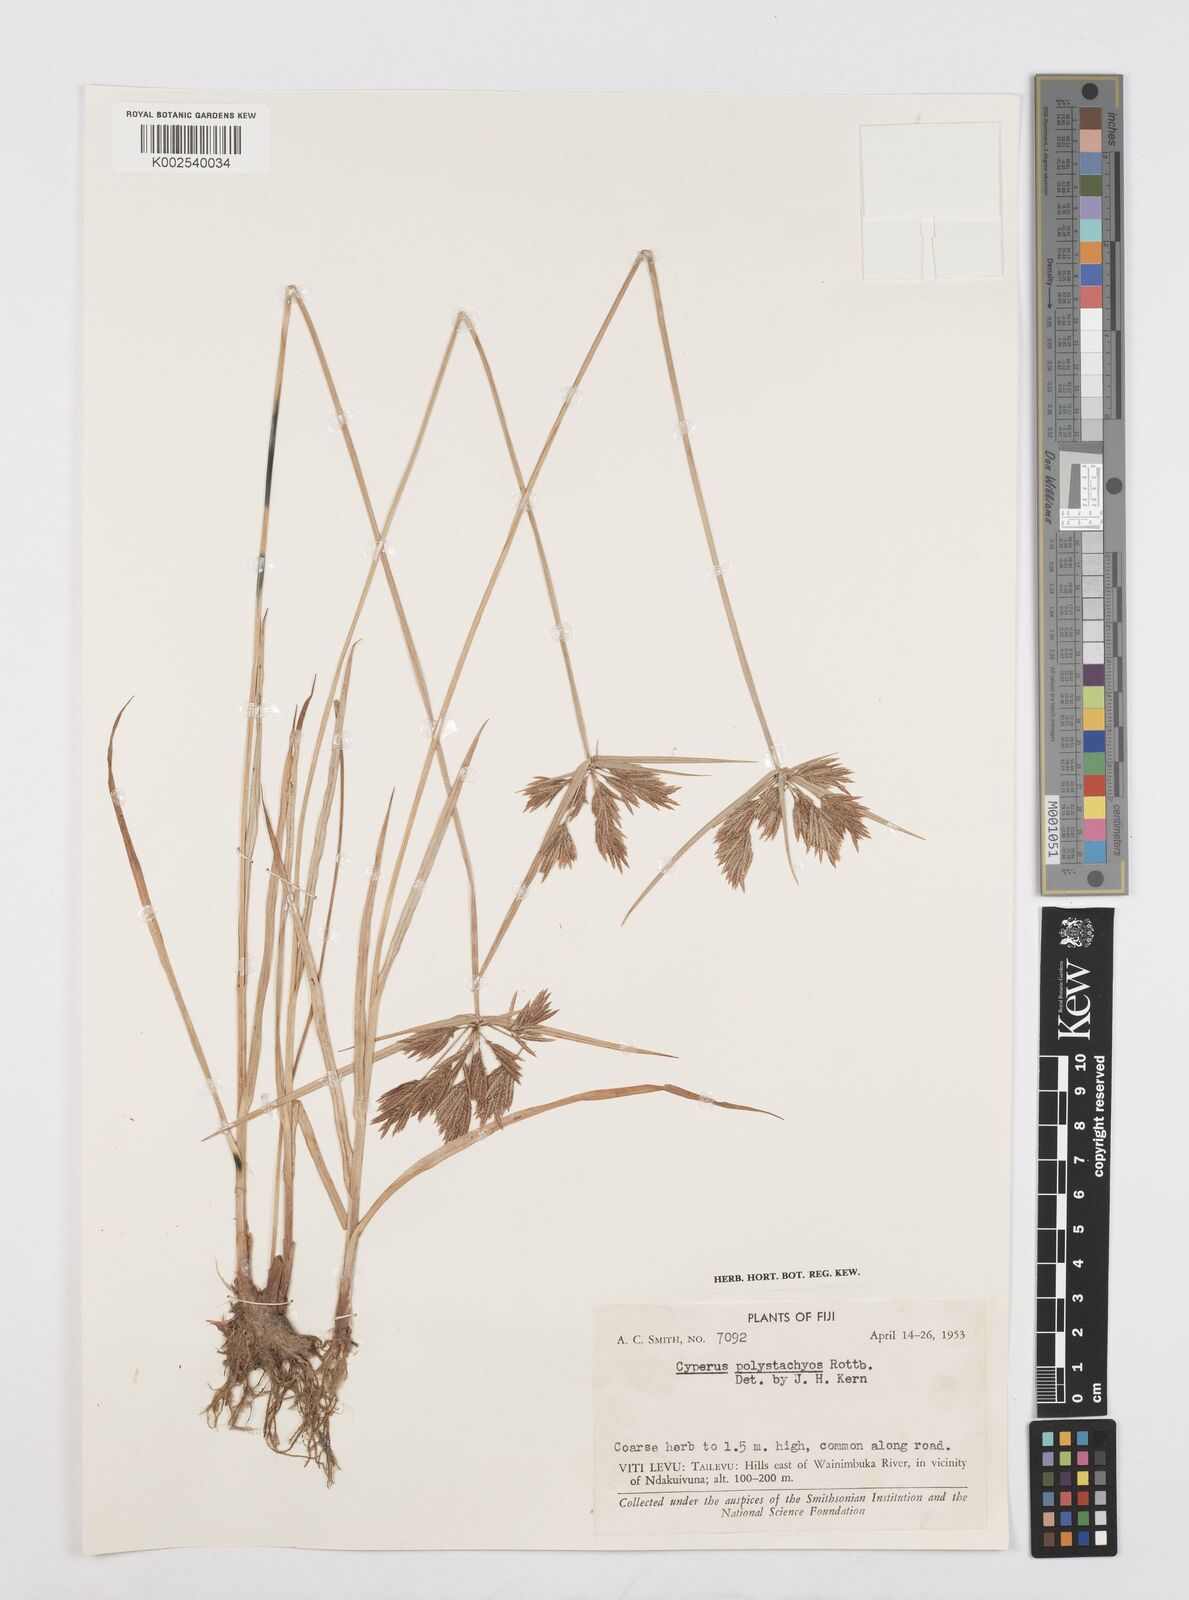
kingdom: Plantae
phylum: Tracheophyta
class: Liliopsida
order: Poales
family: Cyperaceae
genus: Cyperus
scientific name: Cyperus polystachyos
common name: Bunchy flat sedge
